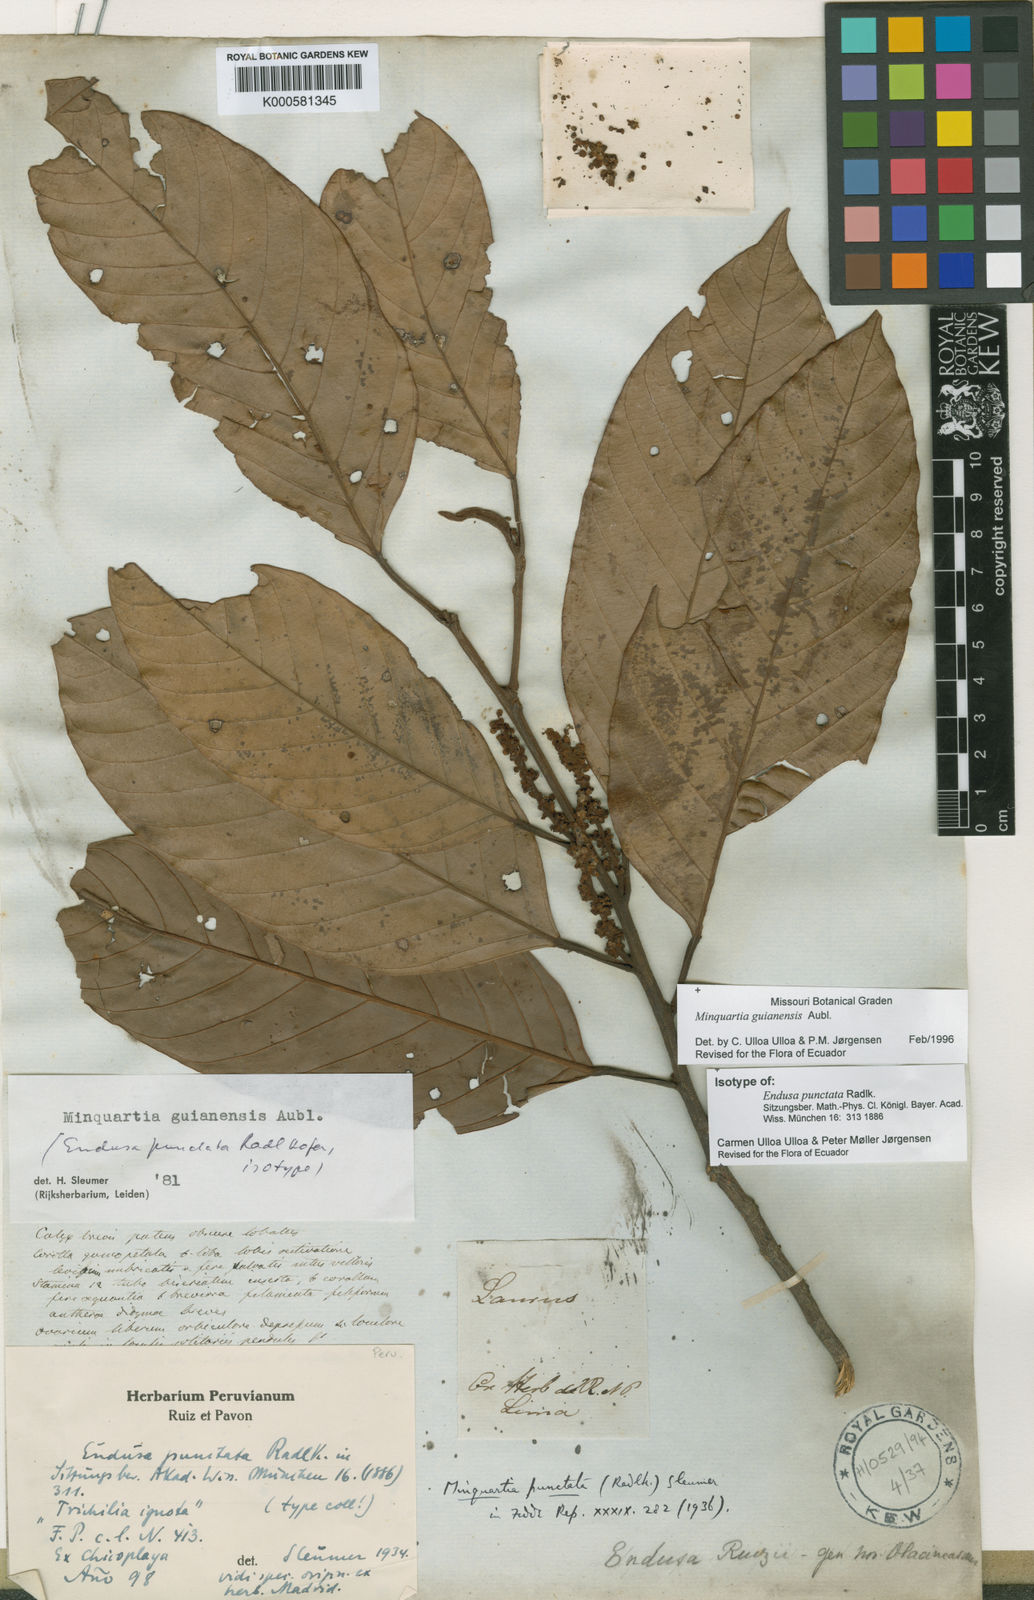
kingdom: Plantae
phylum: Tracheophyta
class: Magnoliopsida
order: Santalales
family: Coulaceae
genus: Minquartia
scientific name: Minquartia guianensis
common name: Black manwood
